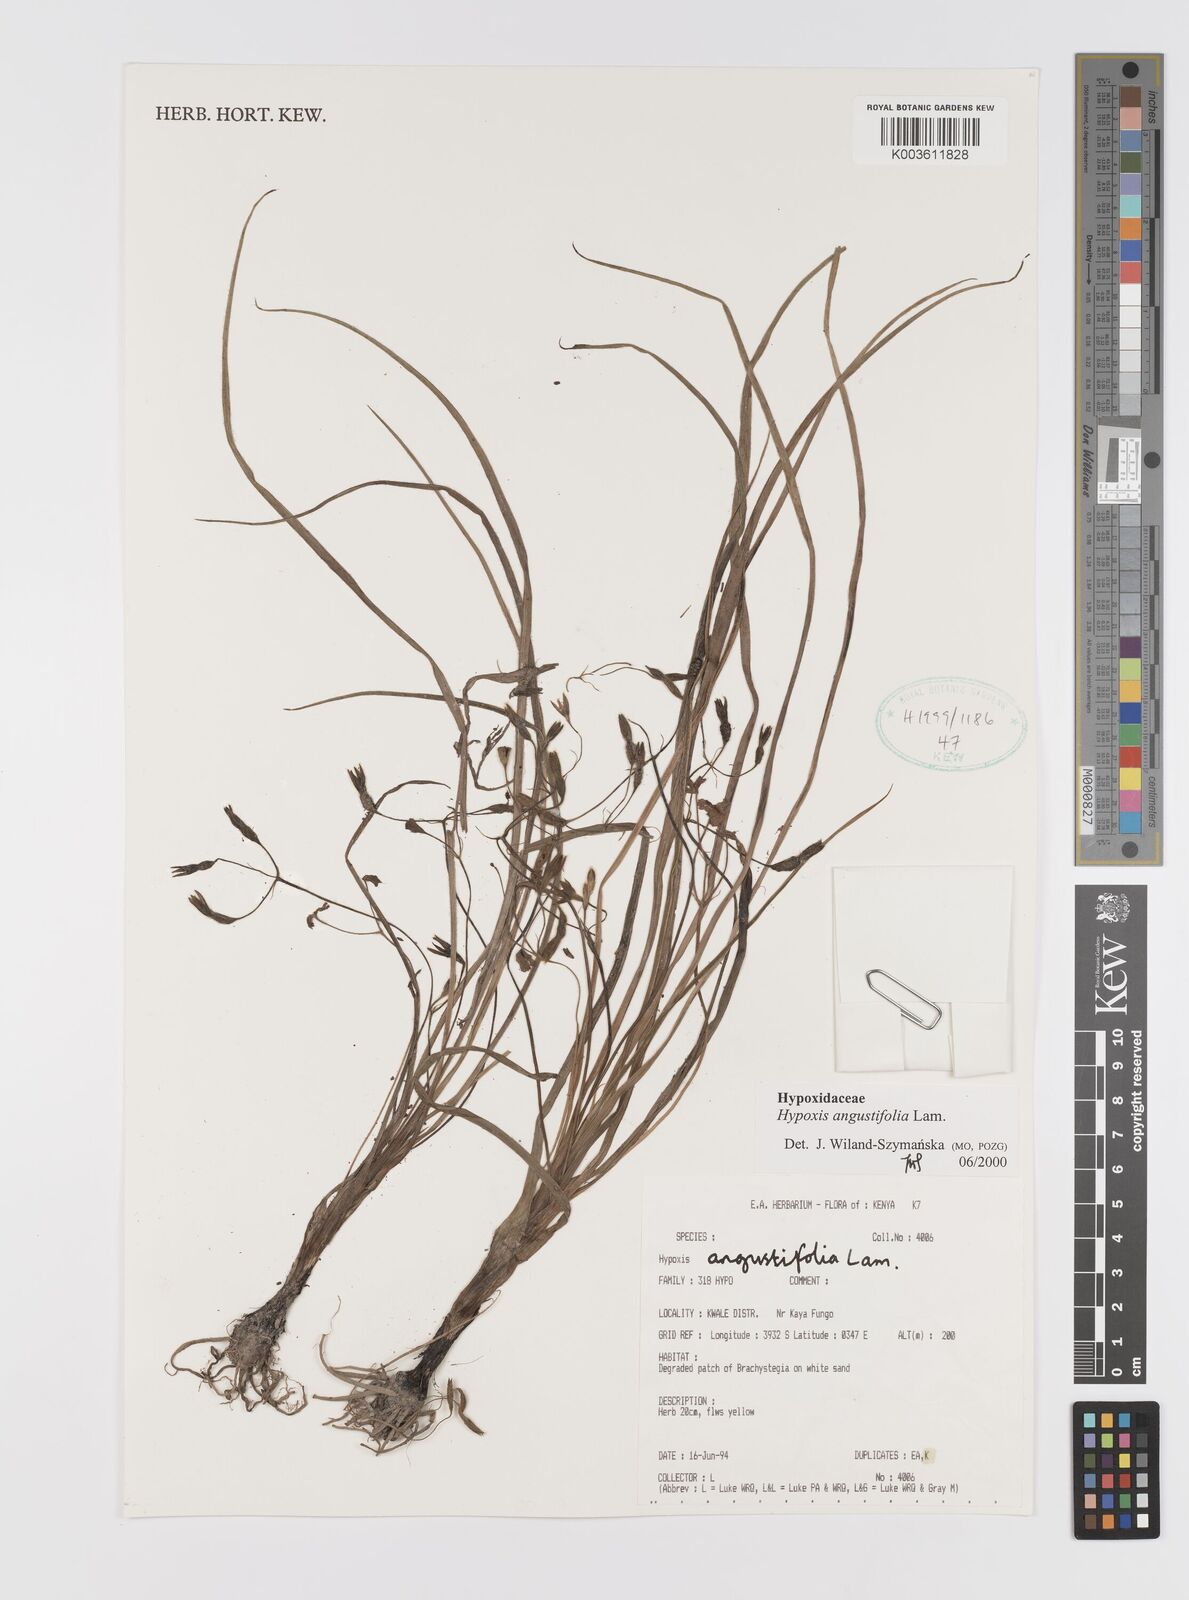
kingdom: Plantae
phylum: Tracheophyta
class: Liliopsida
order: Asparagales
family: Hypoxidaceae
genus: Hypoxis
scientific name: Hypoxis angustifolia
